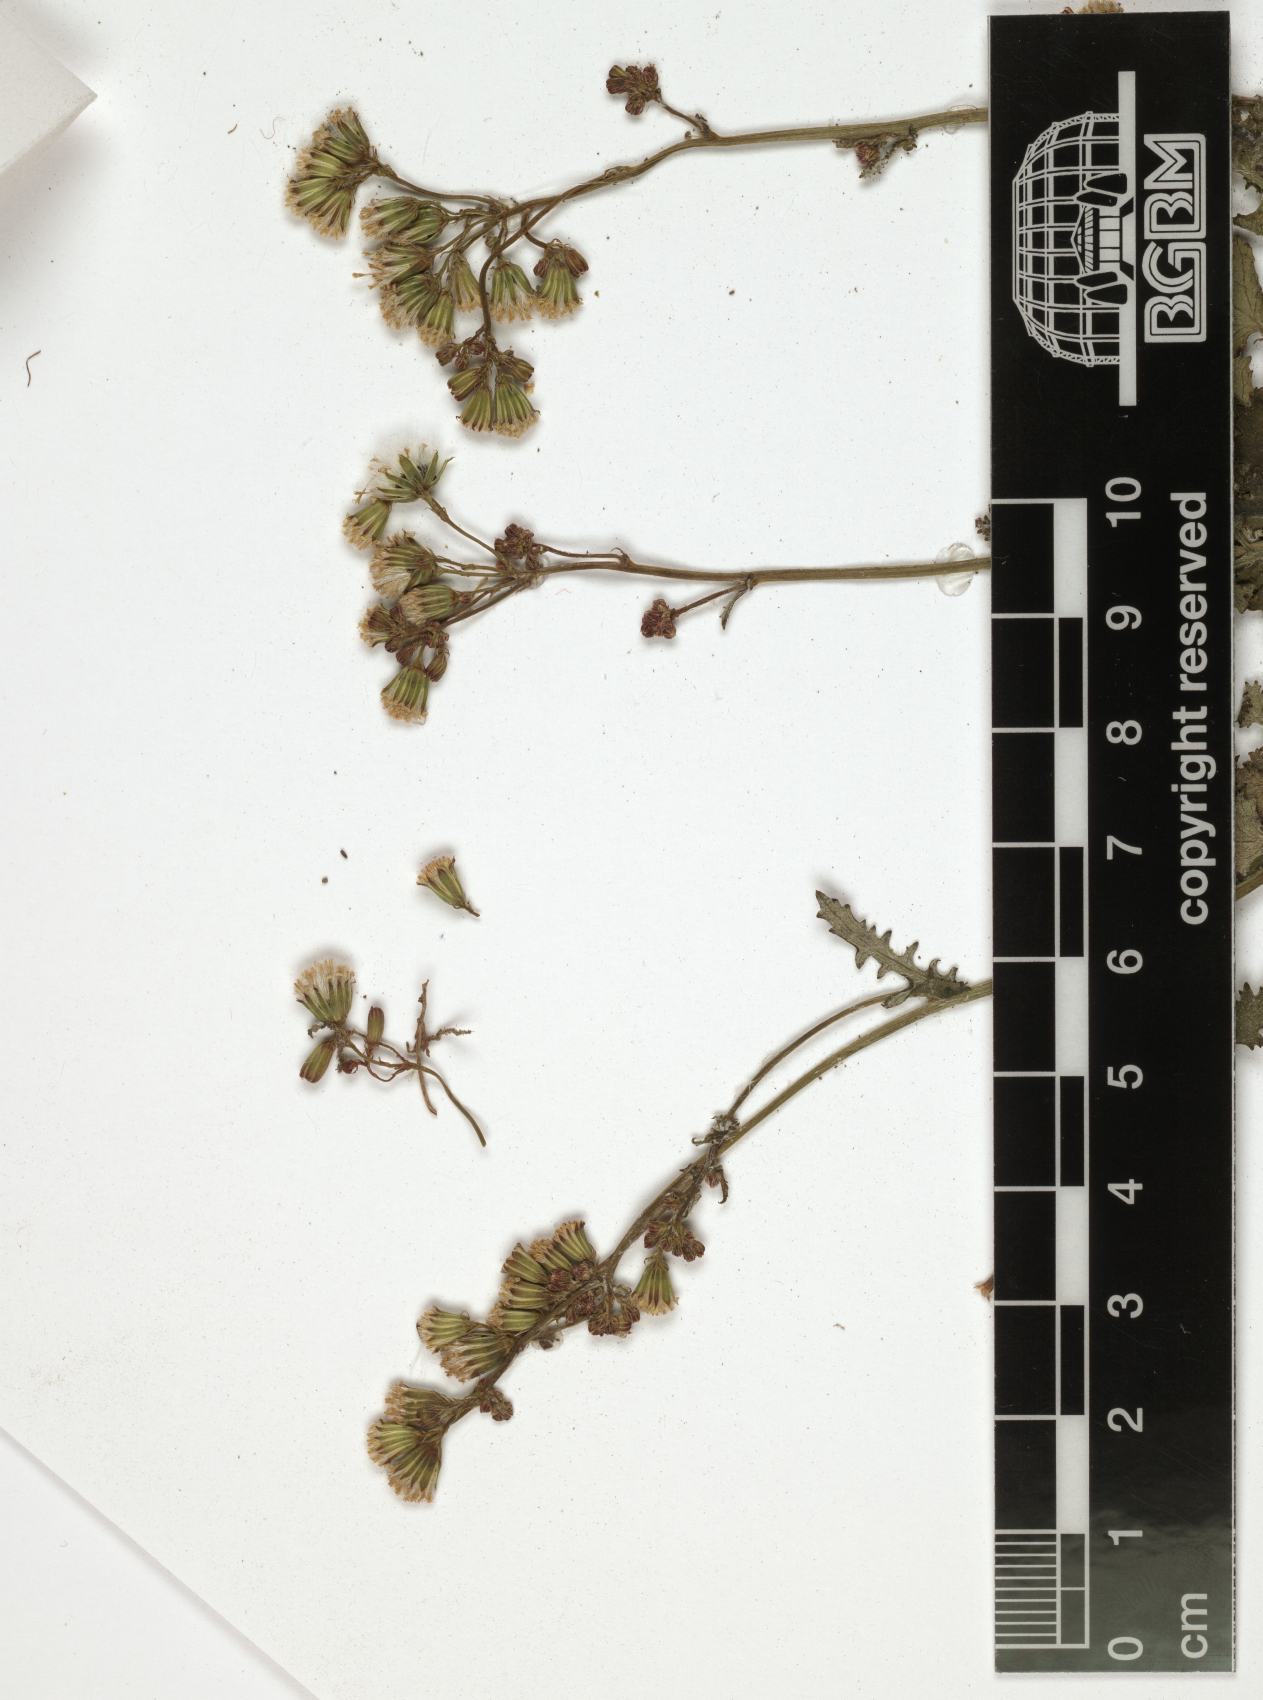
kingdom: Plantae
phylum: Tracheophyta
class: Magnoliopsida
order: Asterales
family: Asteraceae
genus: Cineraria
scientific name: Cineraria abyssinica
